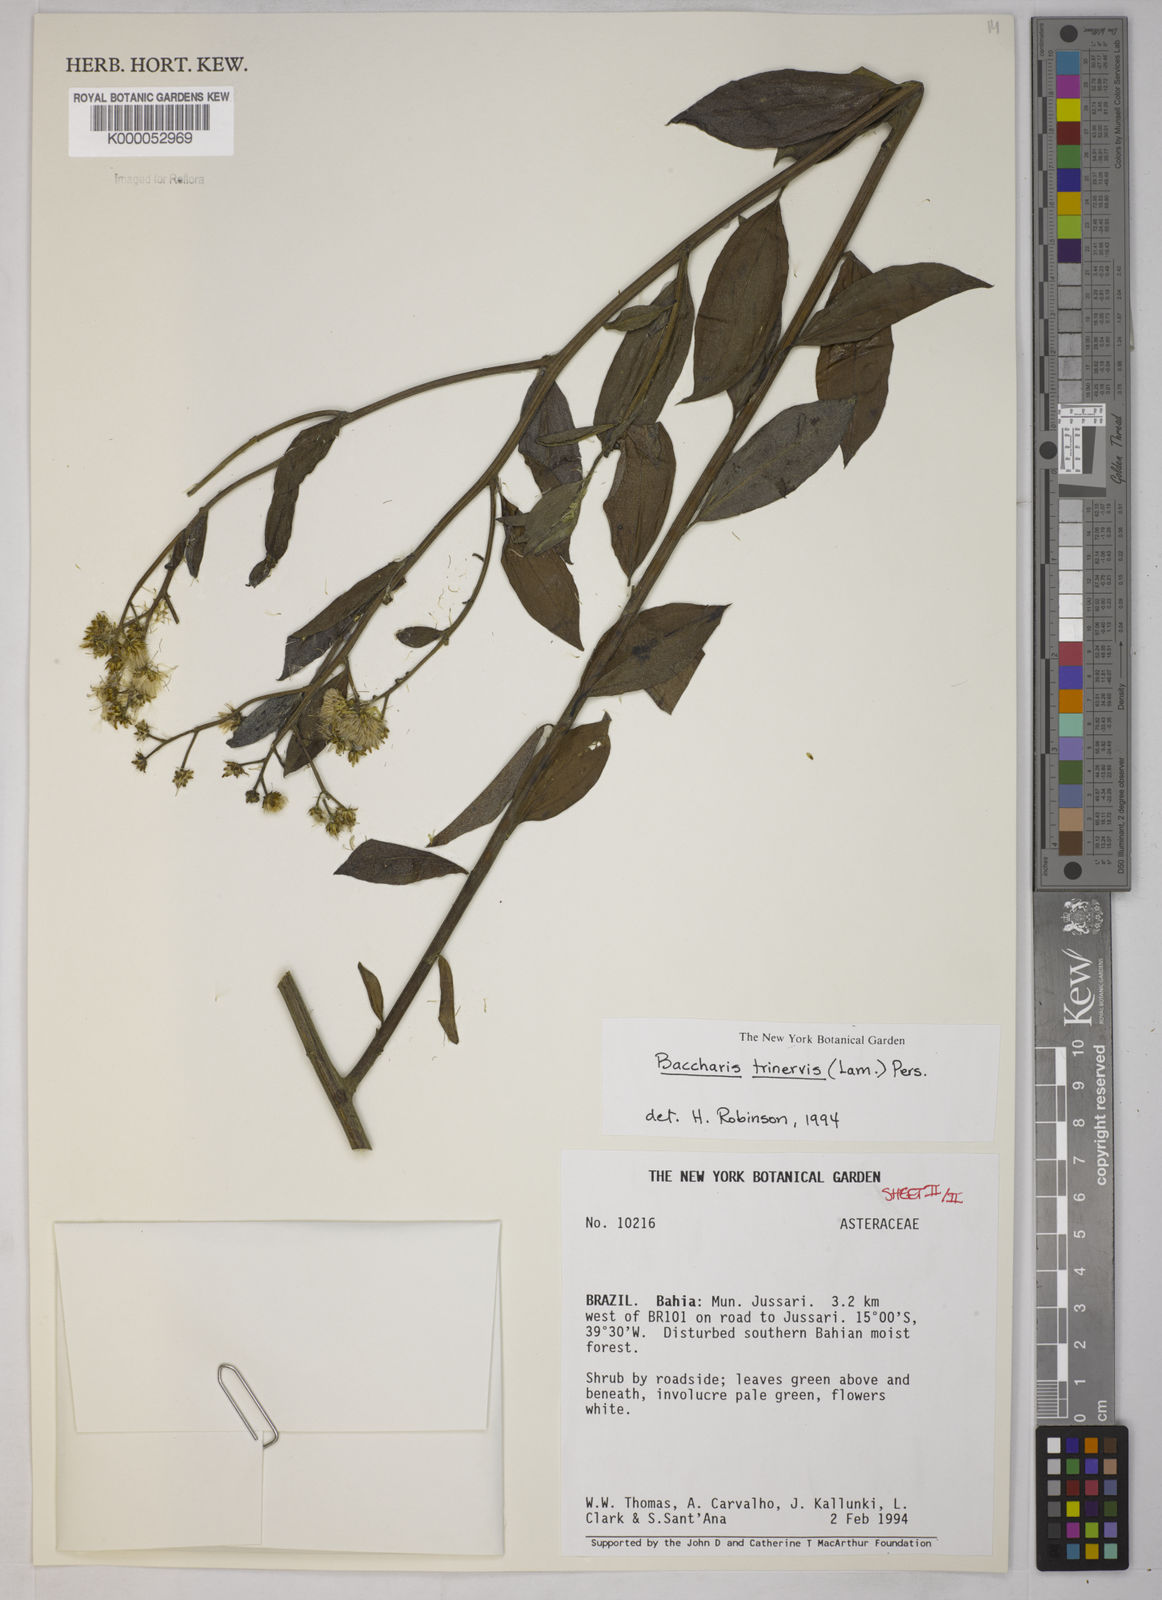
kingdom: Plantae
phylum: Tracheophyta
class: Magnoliopsida
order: Asterales
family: Asteraceae
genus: Baccharis
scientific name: Baccharis trinervis
